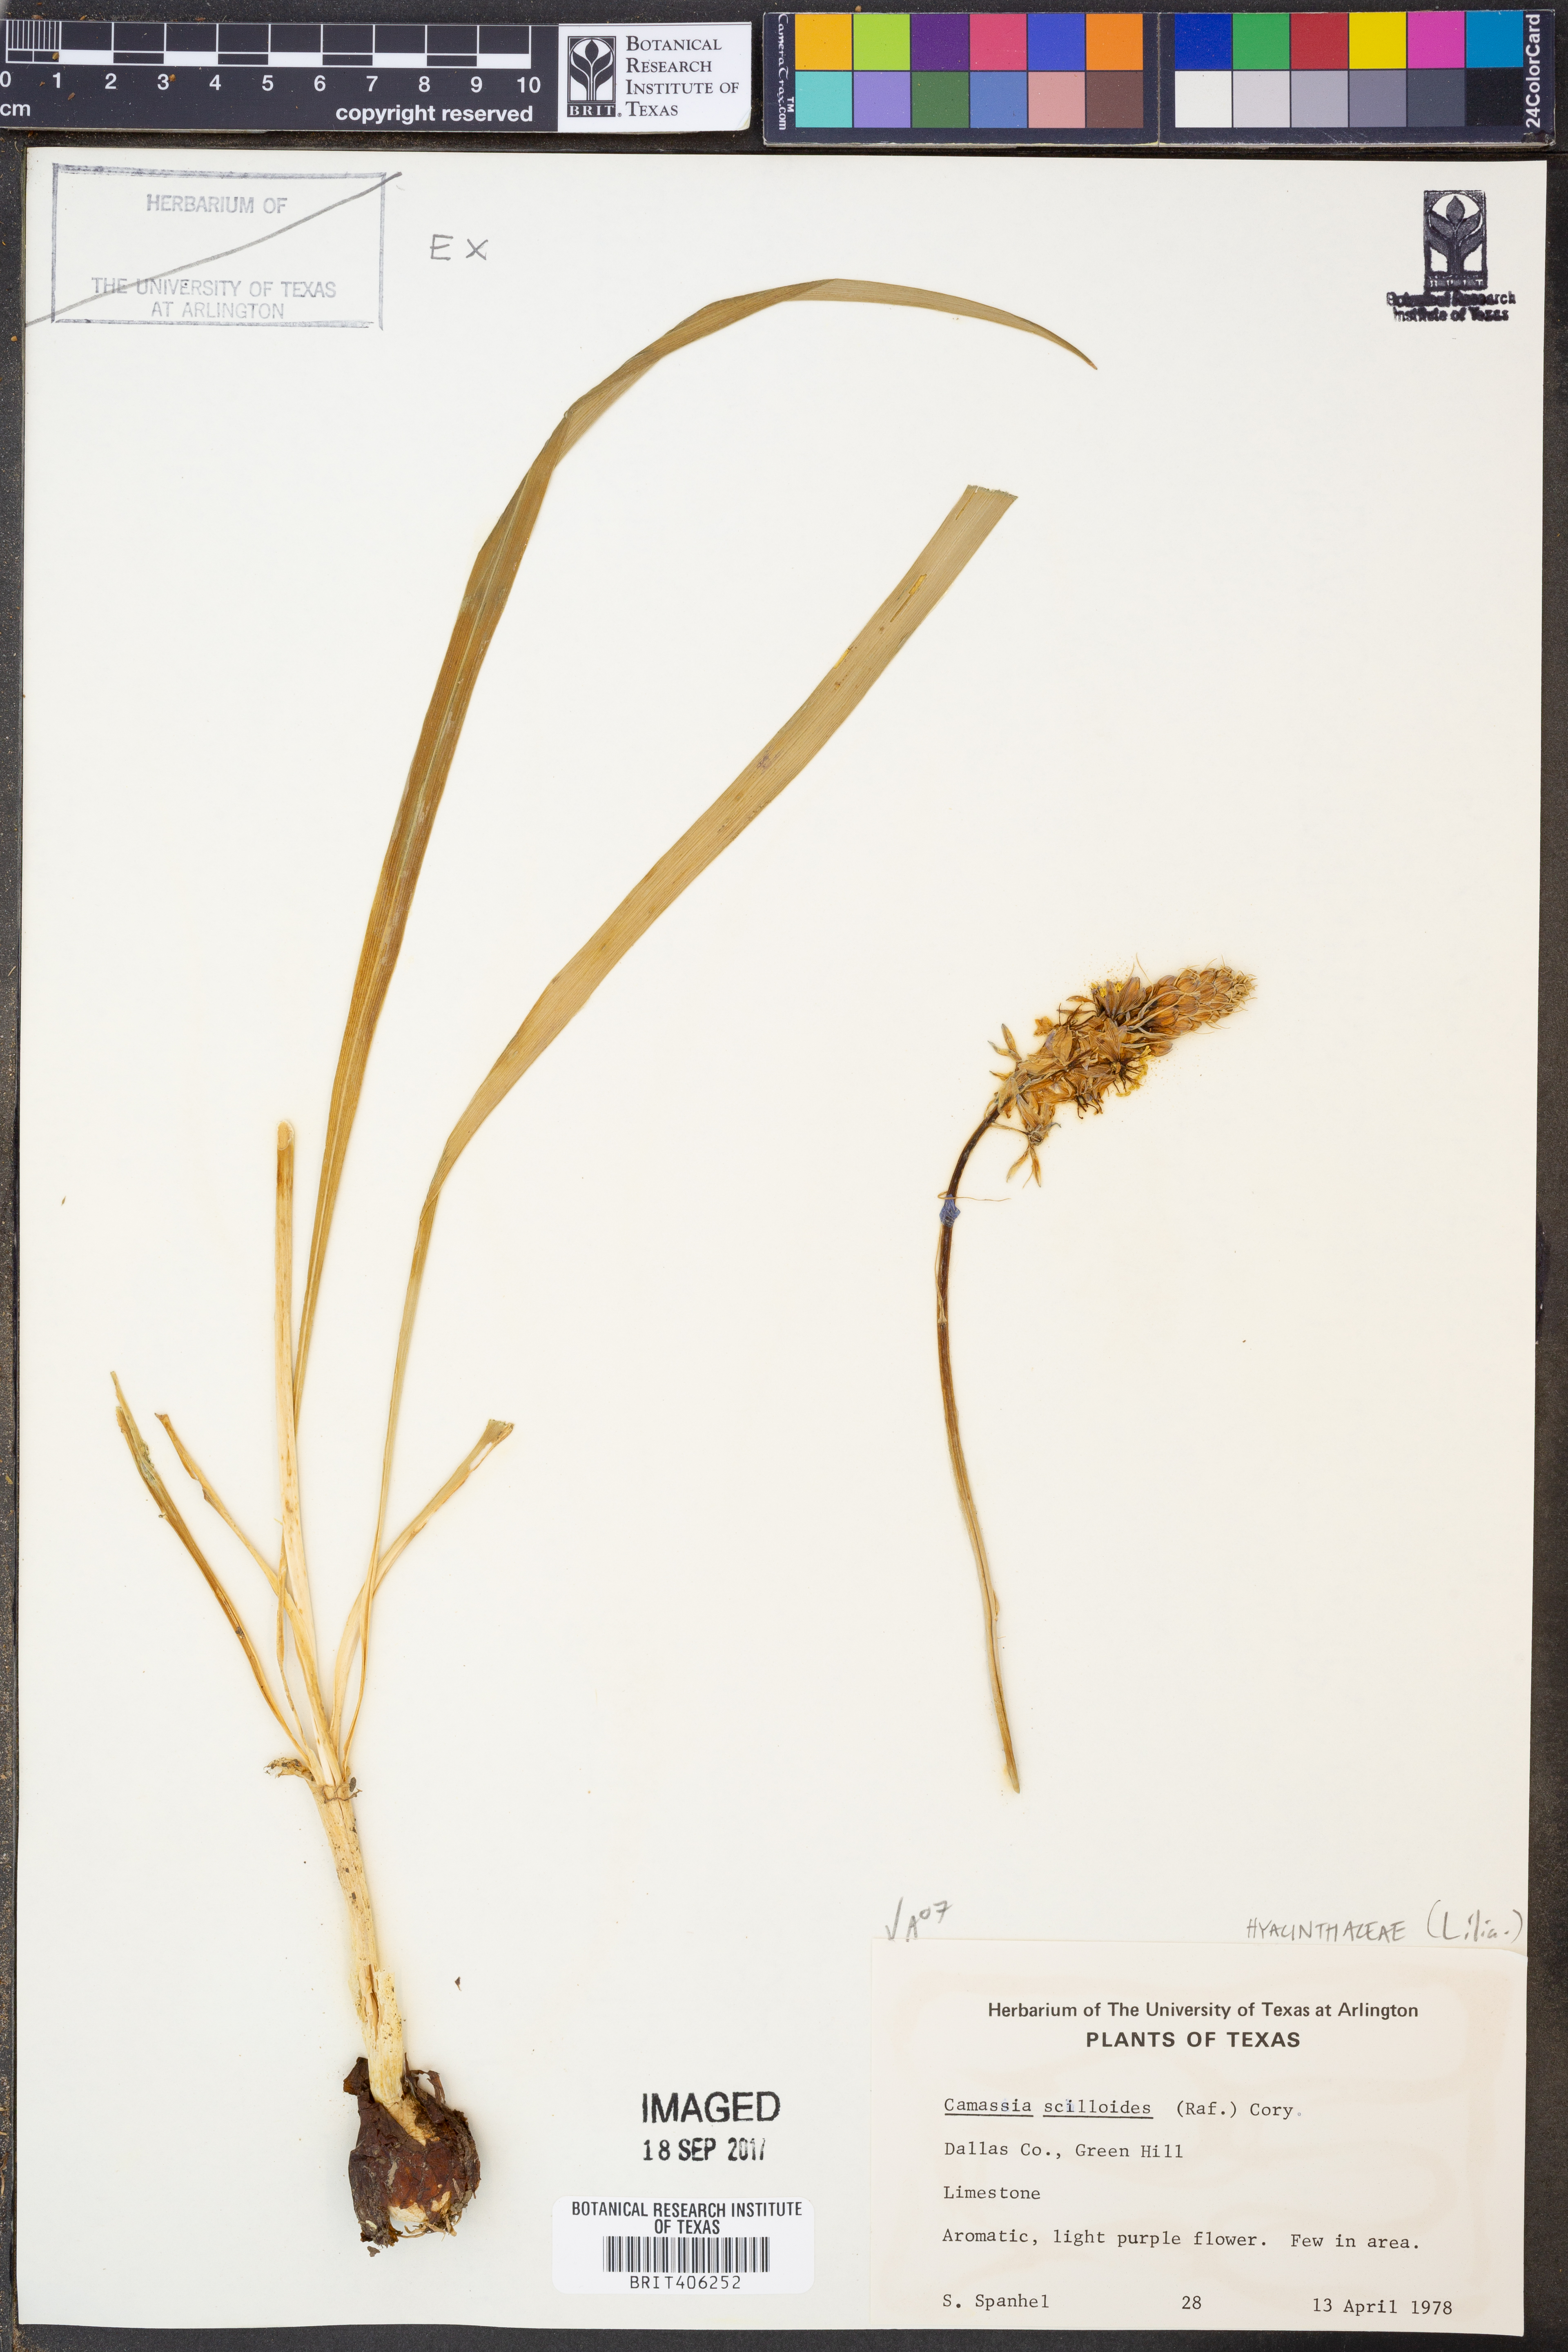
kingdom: Plantae
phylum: Tracheophyta
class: Liliopsida
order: Asparagales
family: Asparagaceae
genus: Camassia
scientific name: Camassia scilloides
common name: Wild hyacinth
